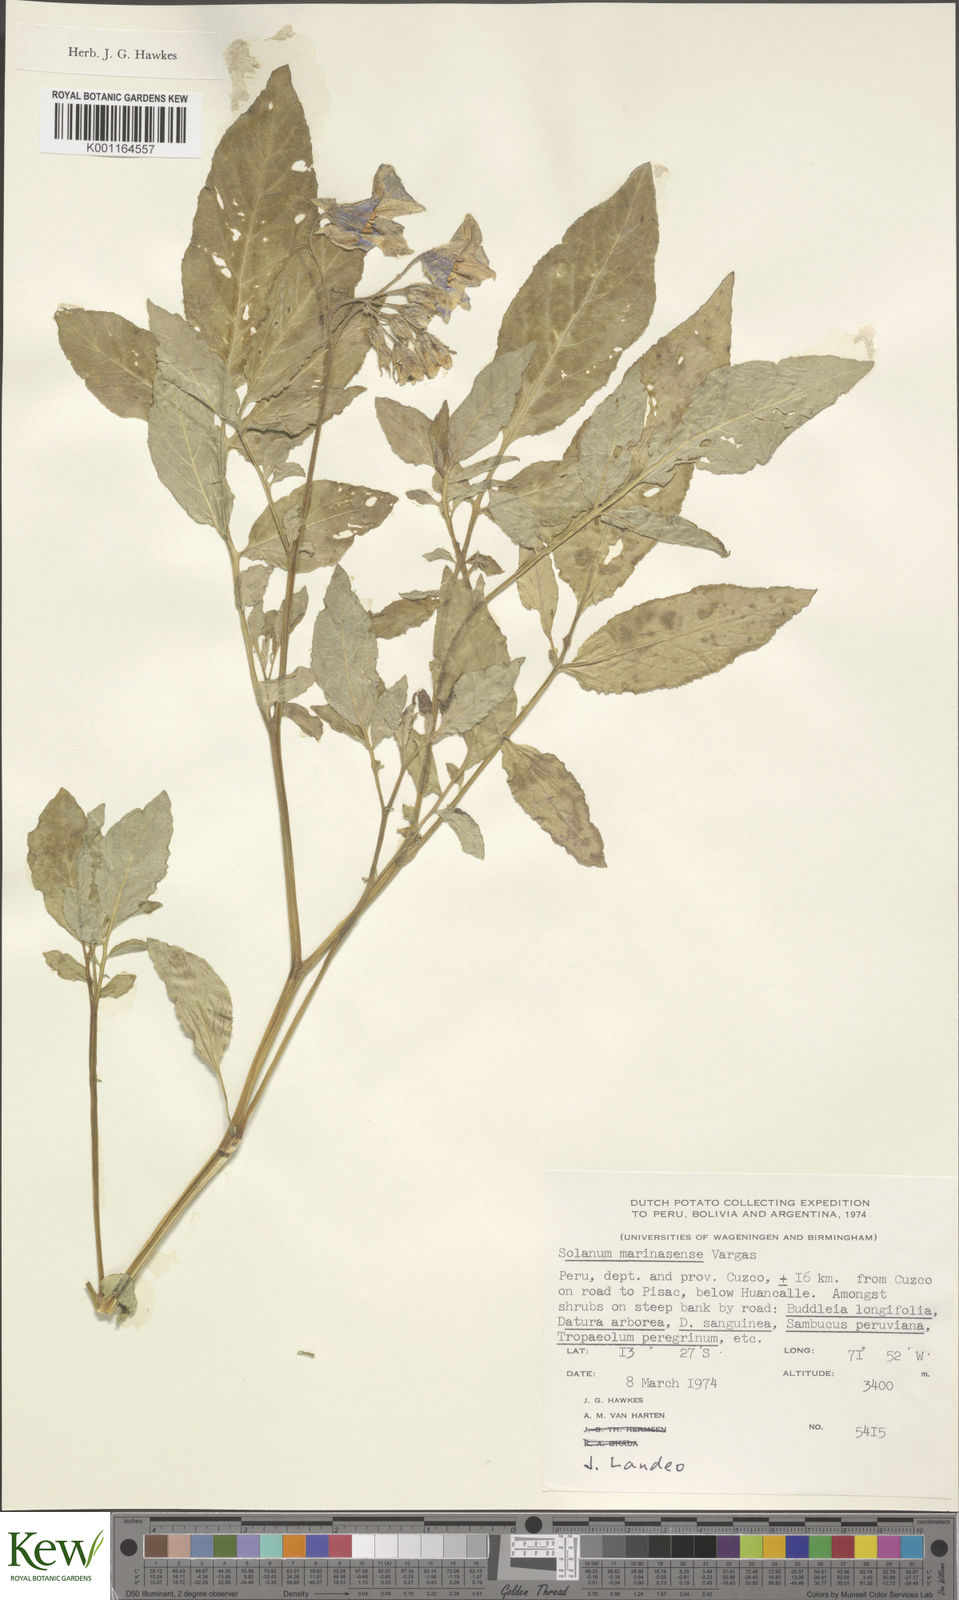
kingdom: Plantae
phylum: Tracheophyta
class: Magnoliopsida
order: Solanales
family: Solanaceae
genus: Solanum
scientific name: Solanum candolleanum
